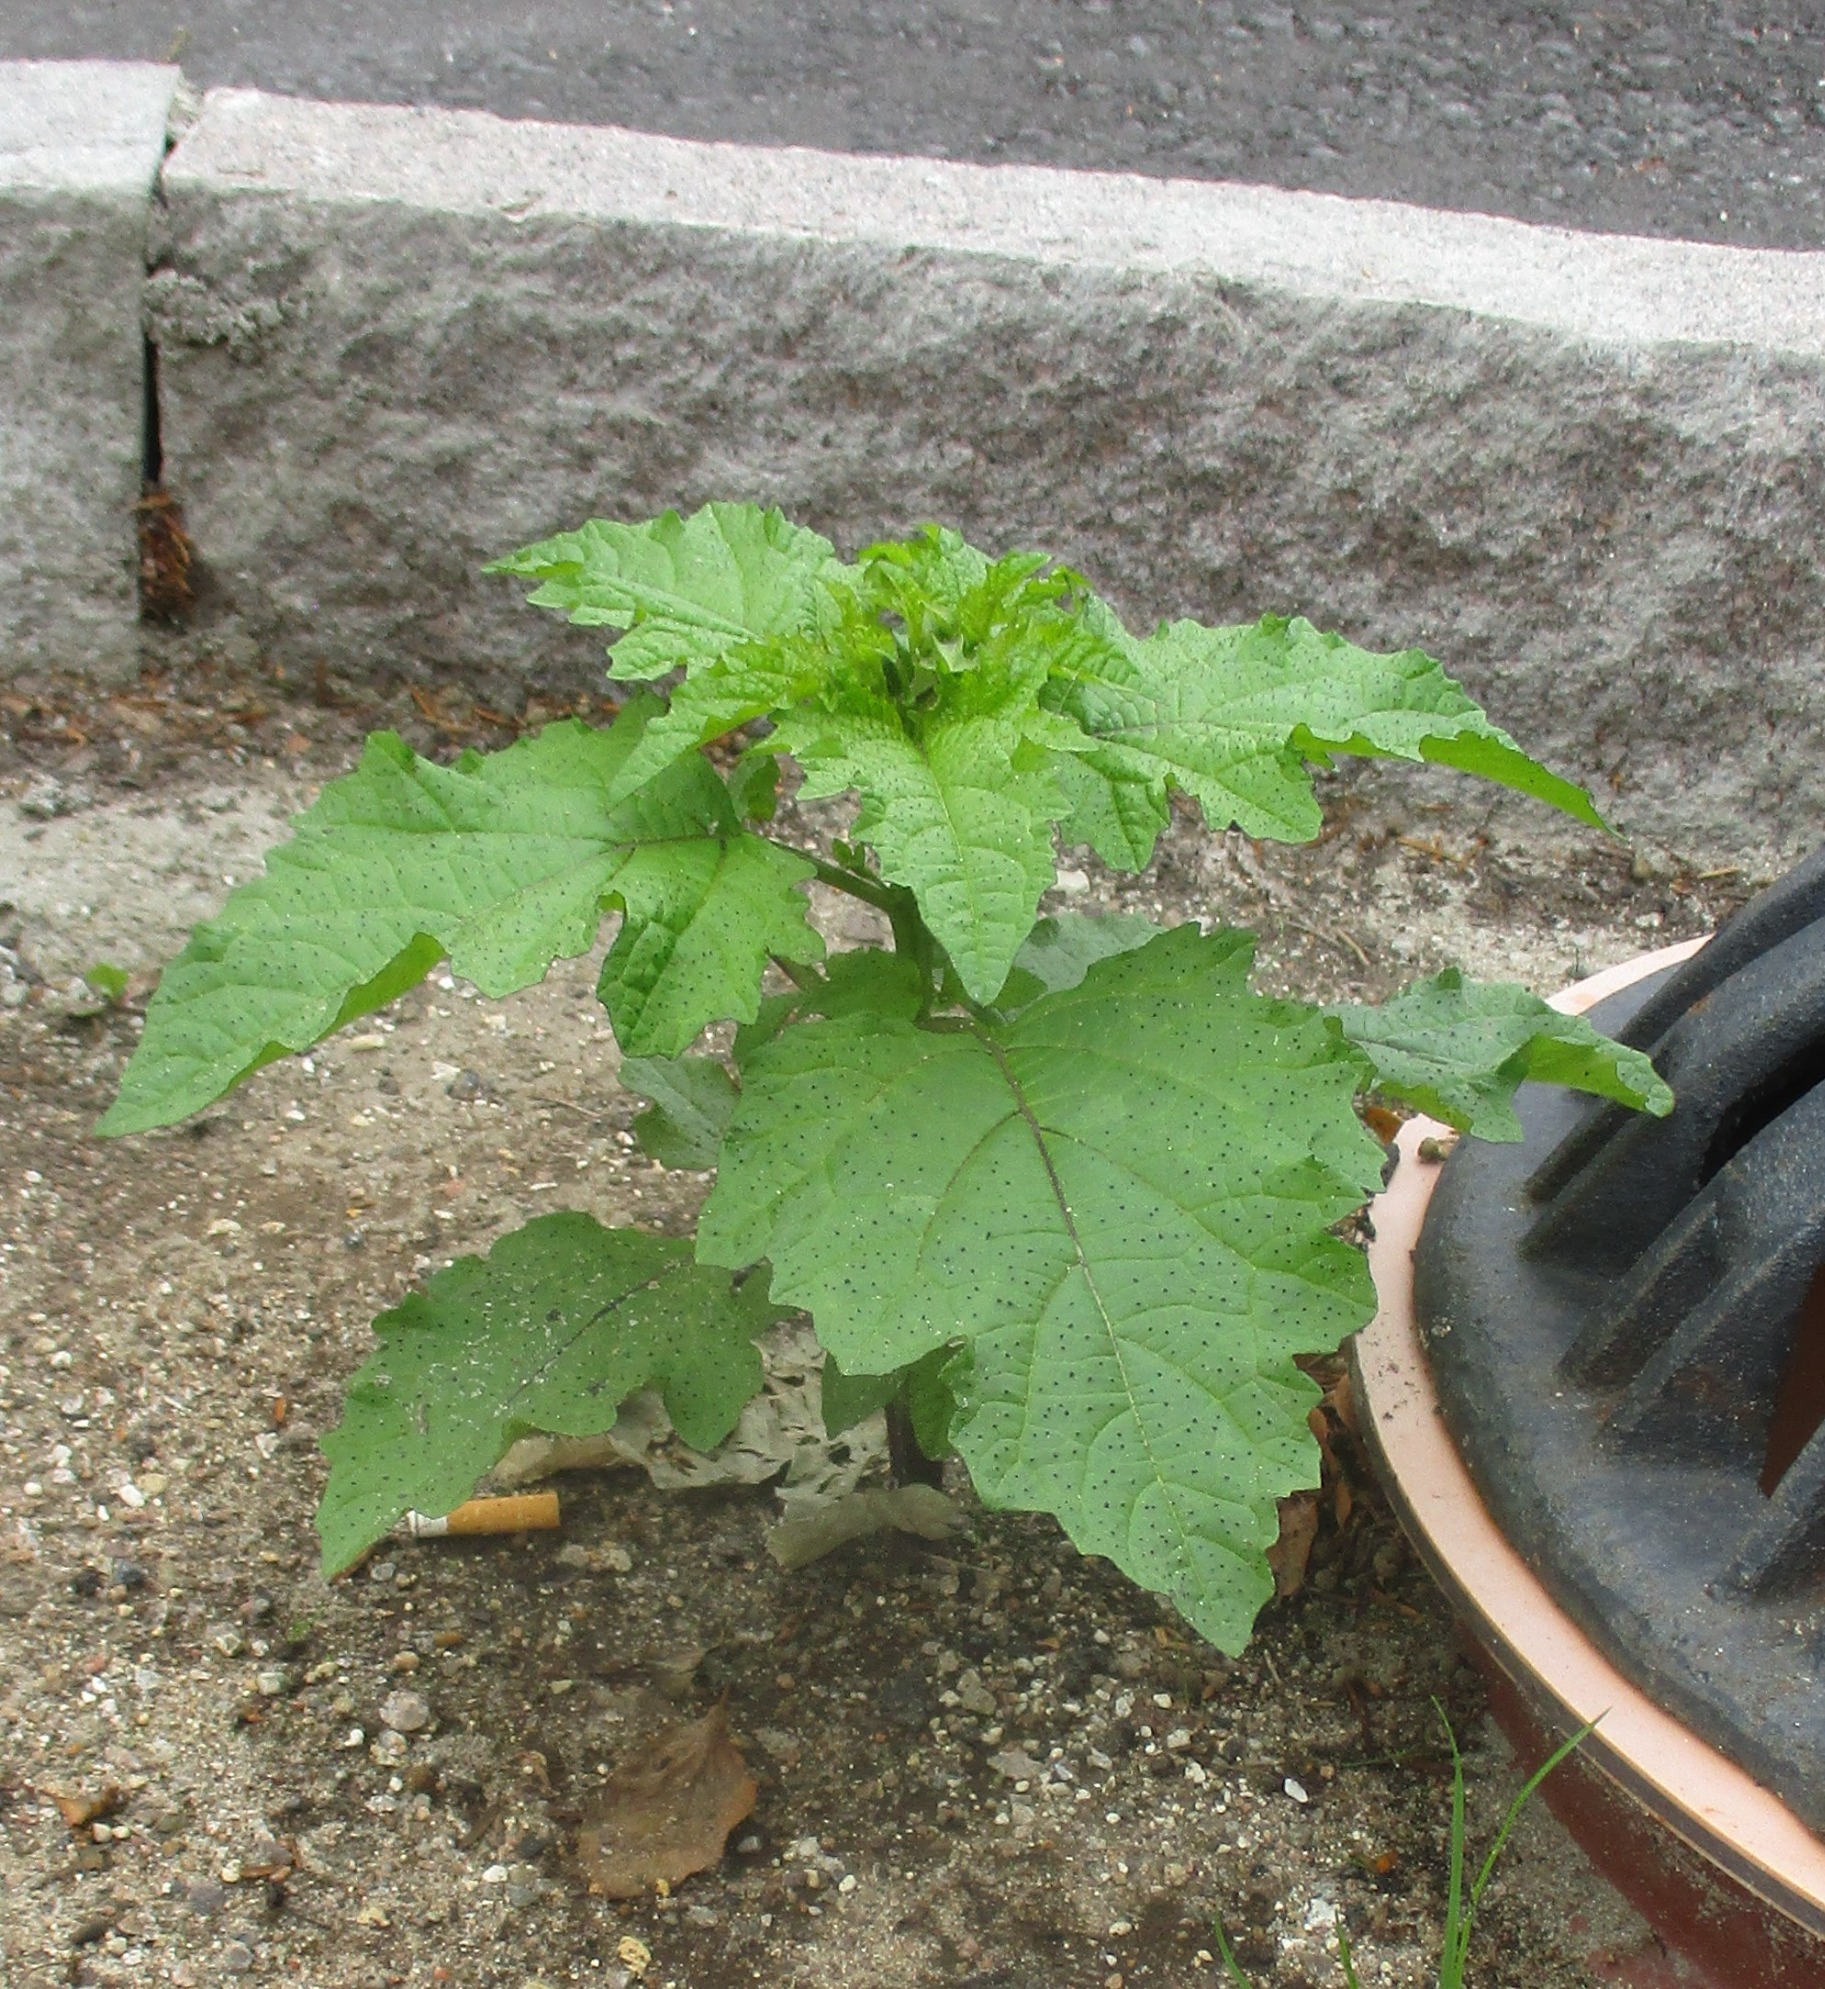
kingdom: Plantae
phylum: Tracheophyta
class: Magnoliopsida
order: Solanales
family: Solanaceae
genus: Nicandra
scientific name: Nicandra physalodes
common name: Kantbæger
